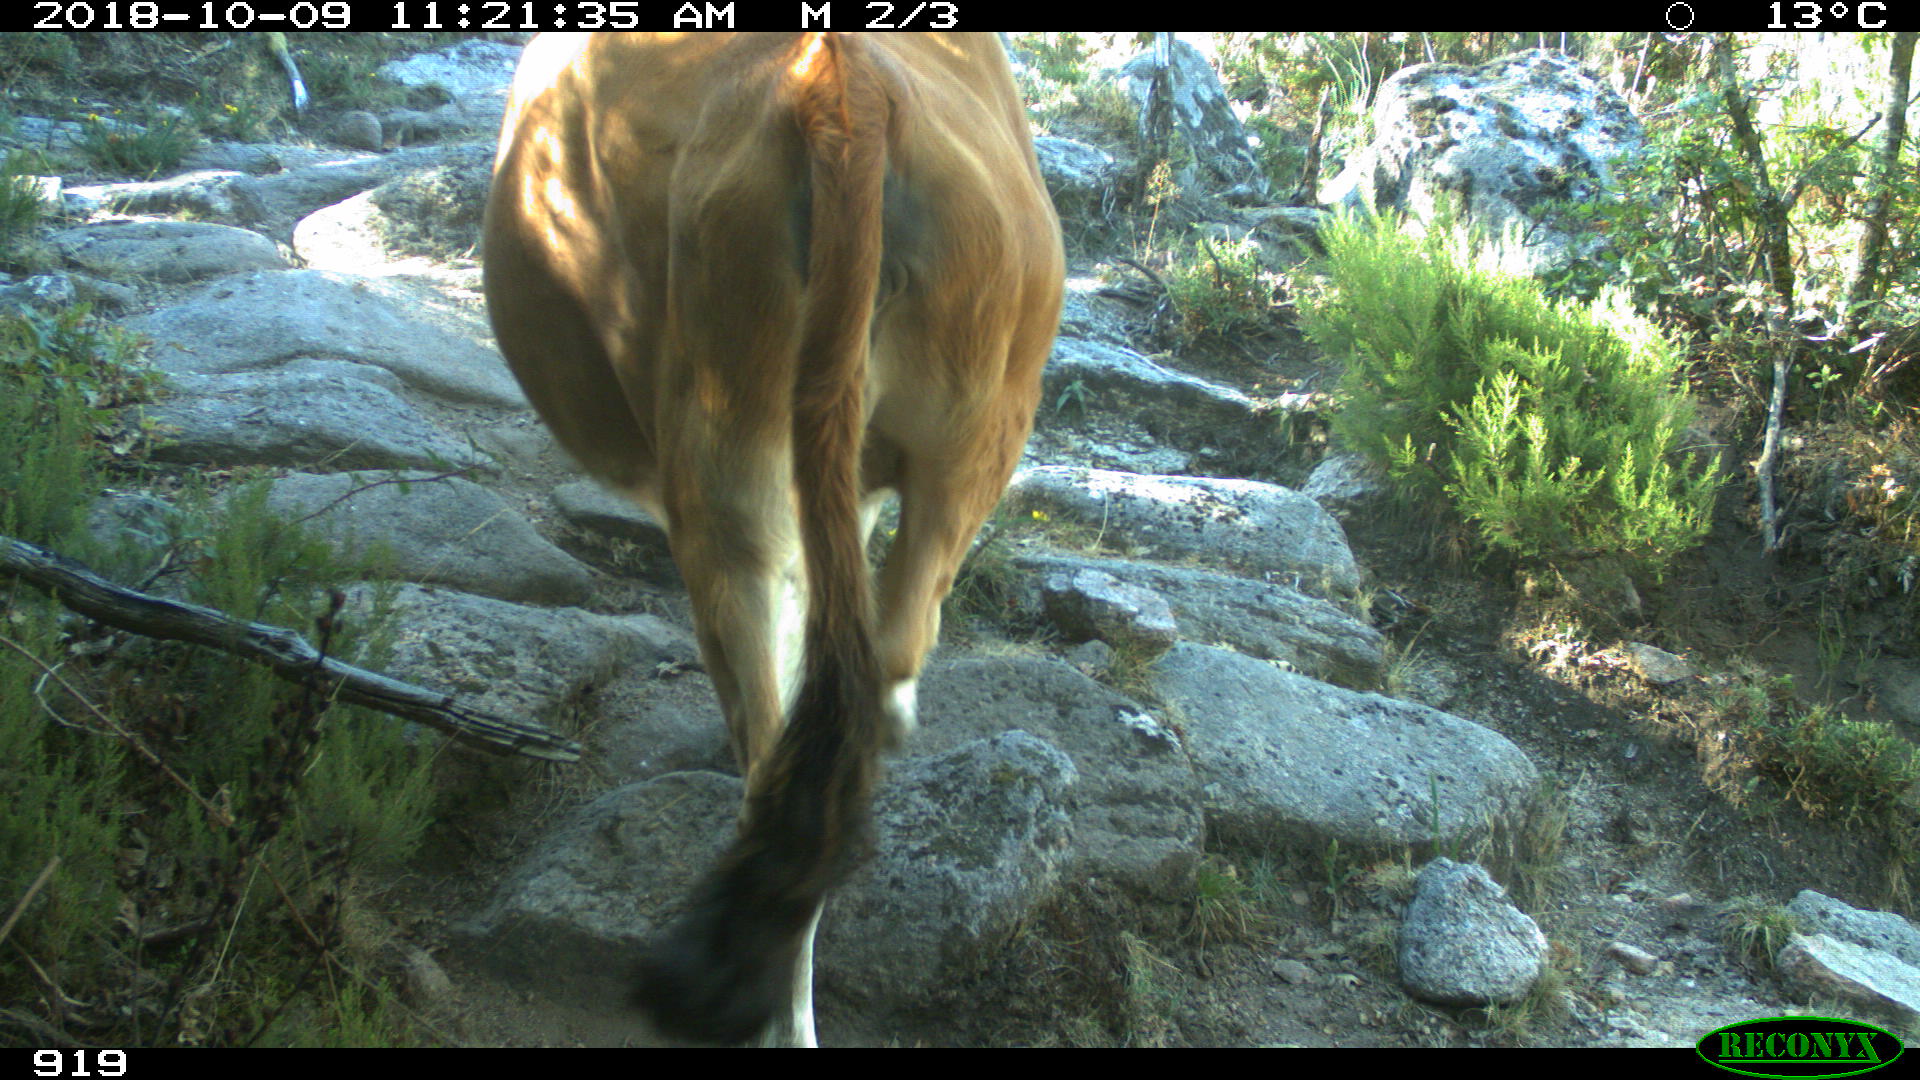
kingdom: Animalia
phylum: Chordata
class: Mammalia
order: Artiodactyla
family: Bovidae
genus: Bos
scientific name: Bos taurus
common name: Domesticated cattle
